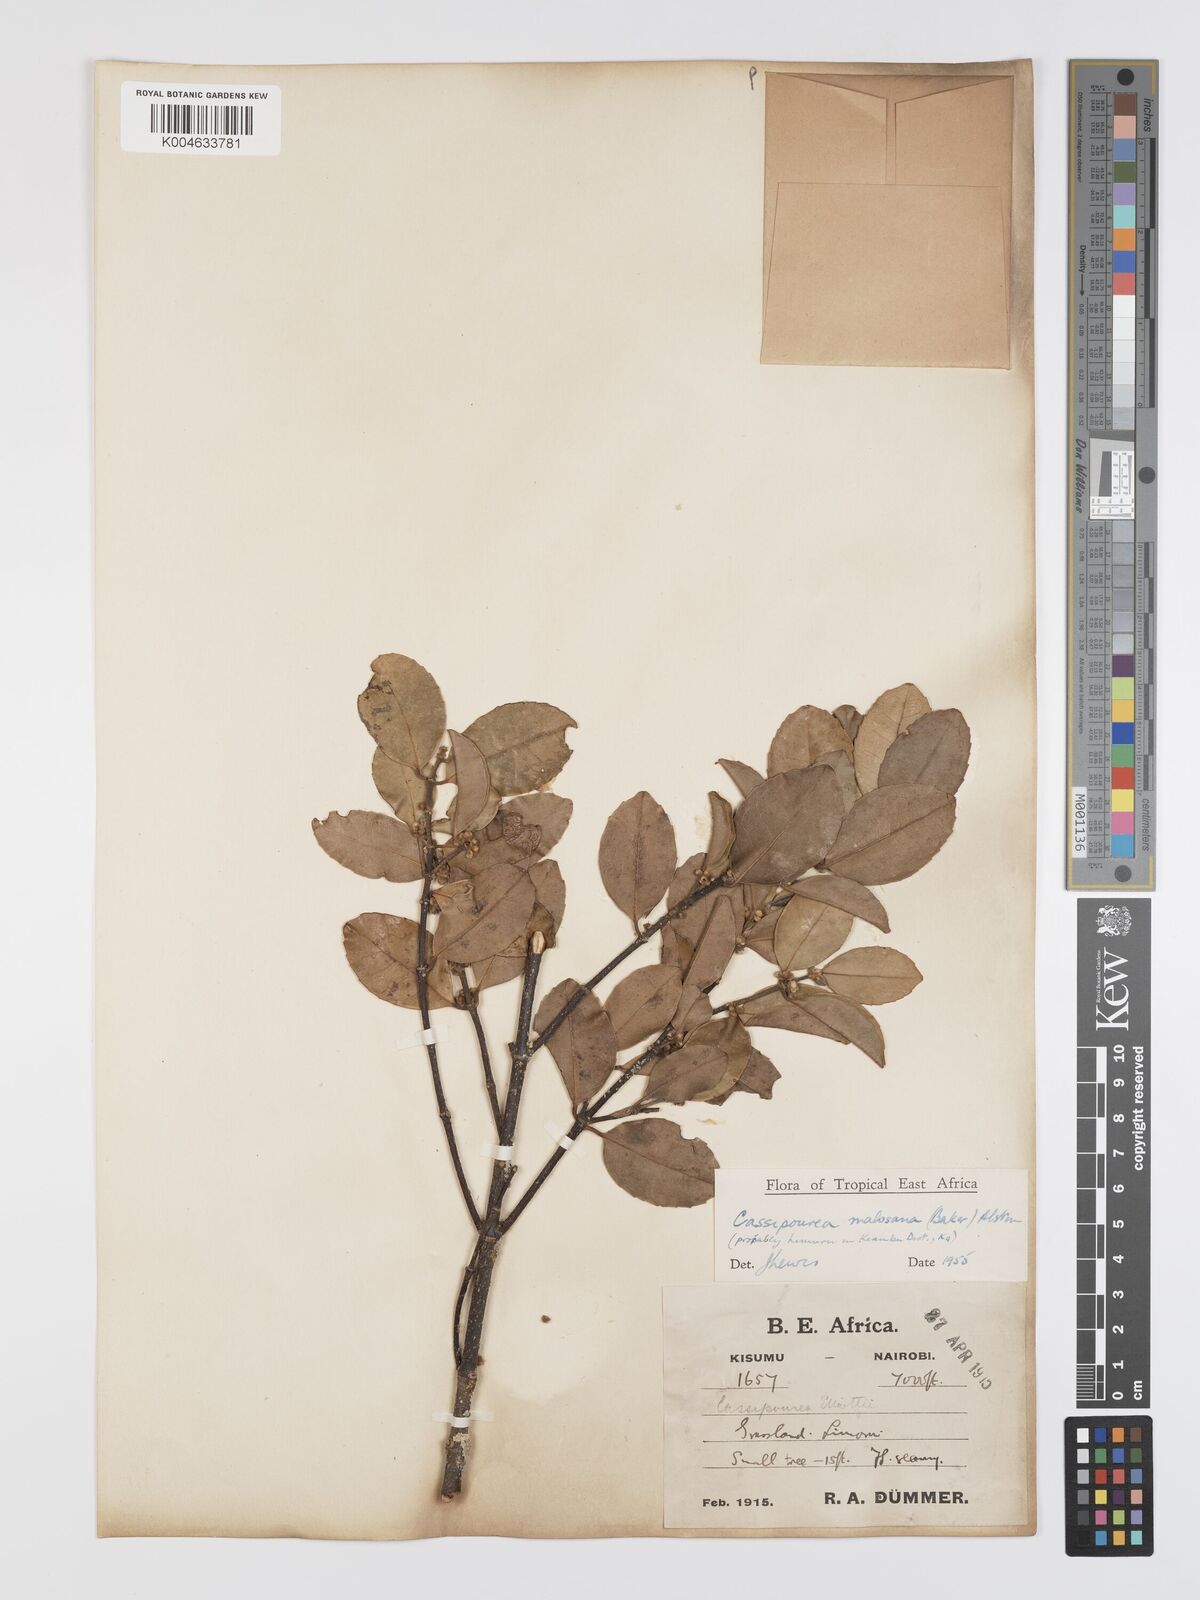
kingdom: Plantae
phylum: Tracheophyta
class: Magnoliopsida
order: Malpighiales
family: Rhizophoraceae
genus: Cassipourea
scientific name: Cassipourea malosana
